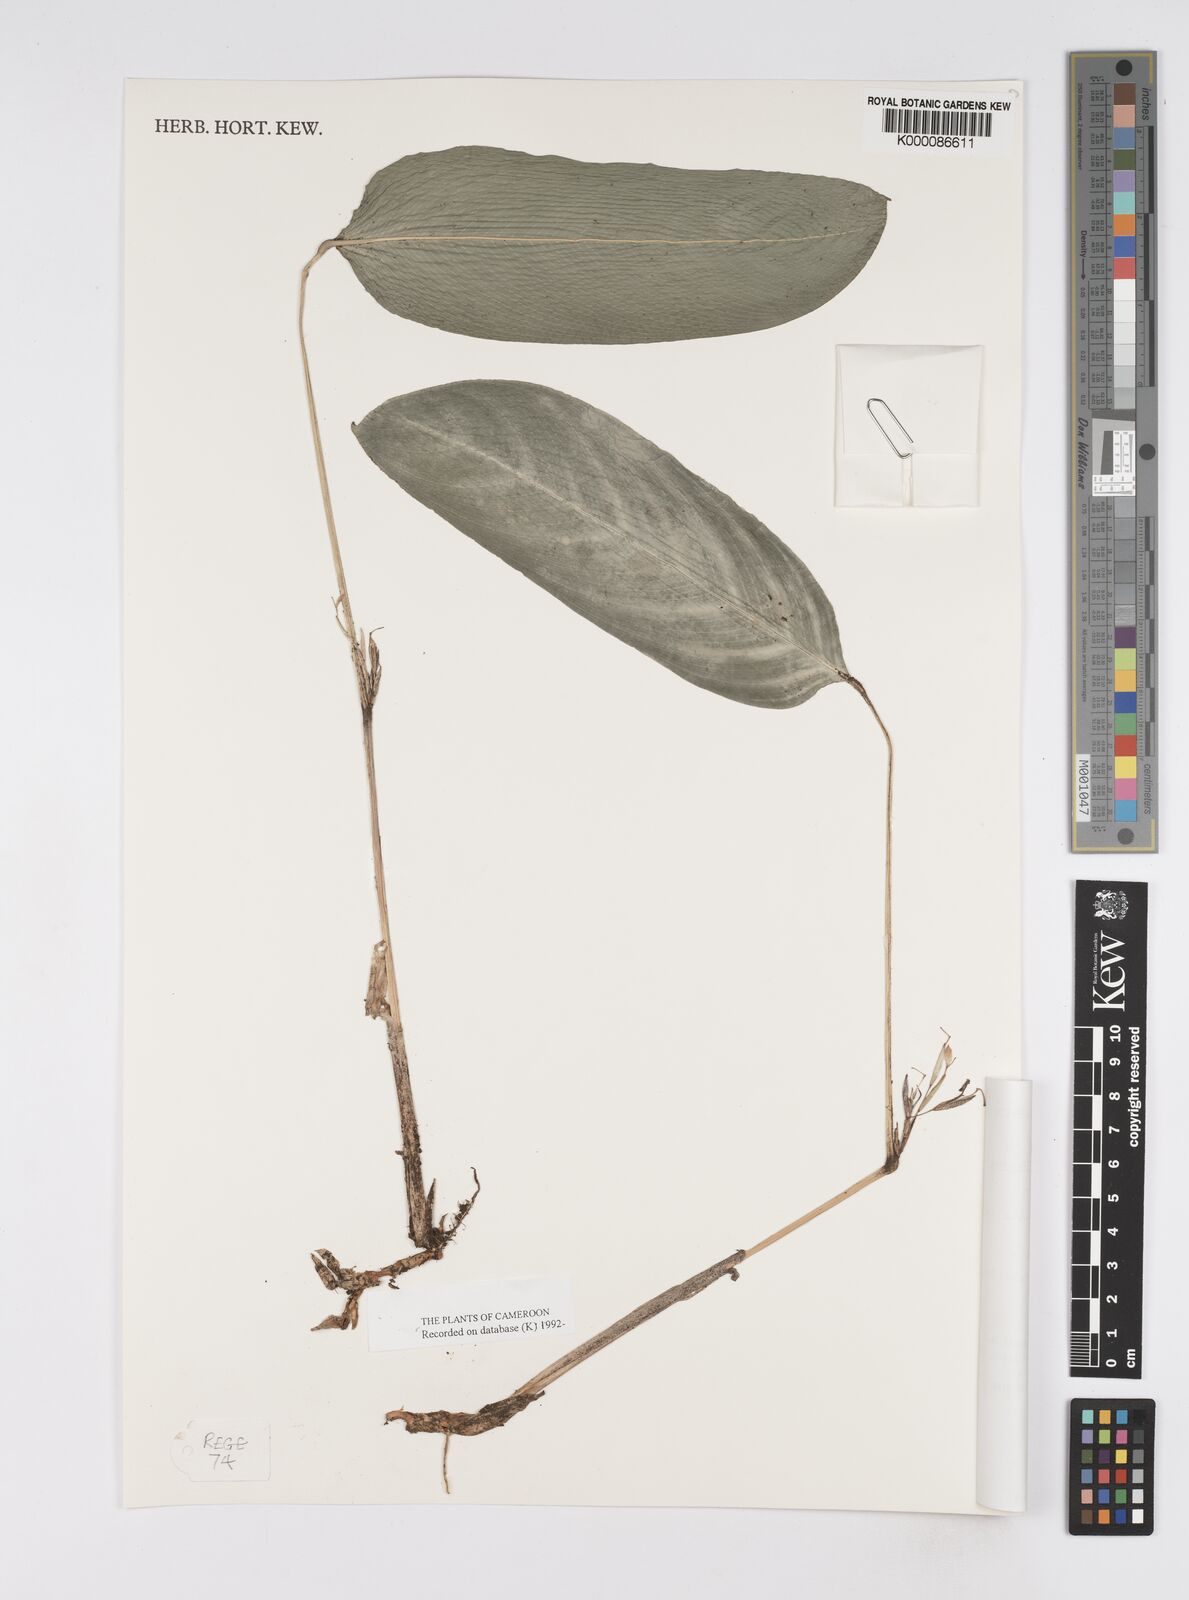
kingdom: Plantae
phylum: Tracheophyta
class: Liliopsida
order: Zingiberales
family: Marantaceae
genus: Marantochloa
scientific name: Marantochloa monophylla
